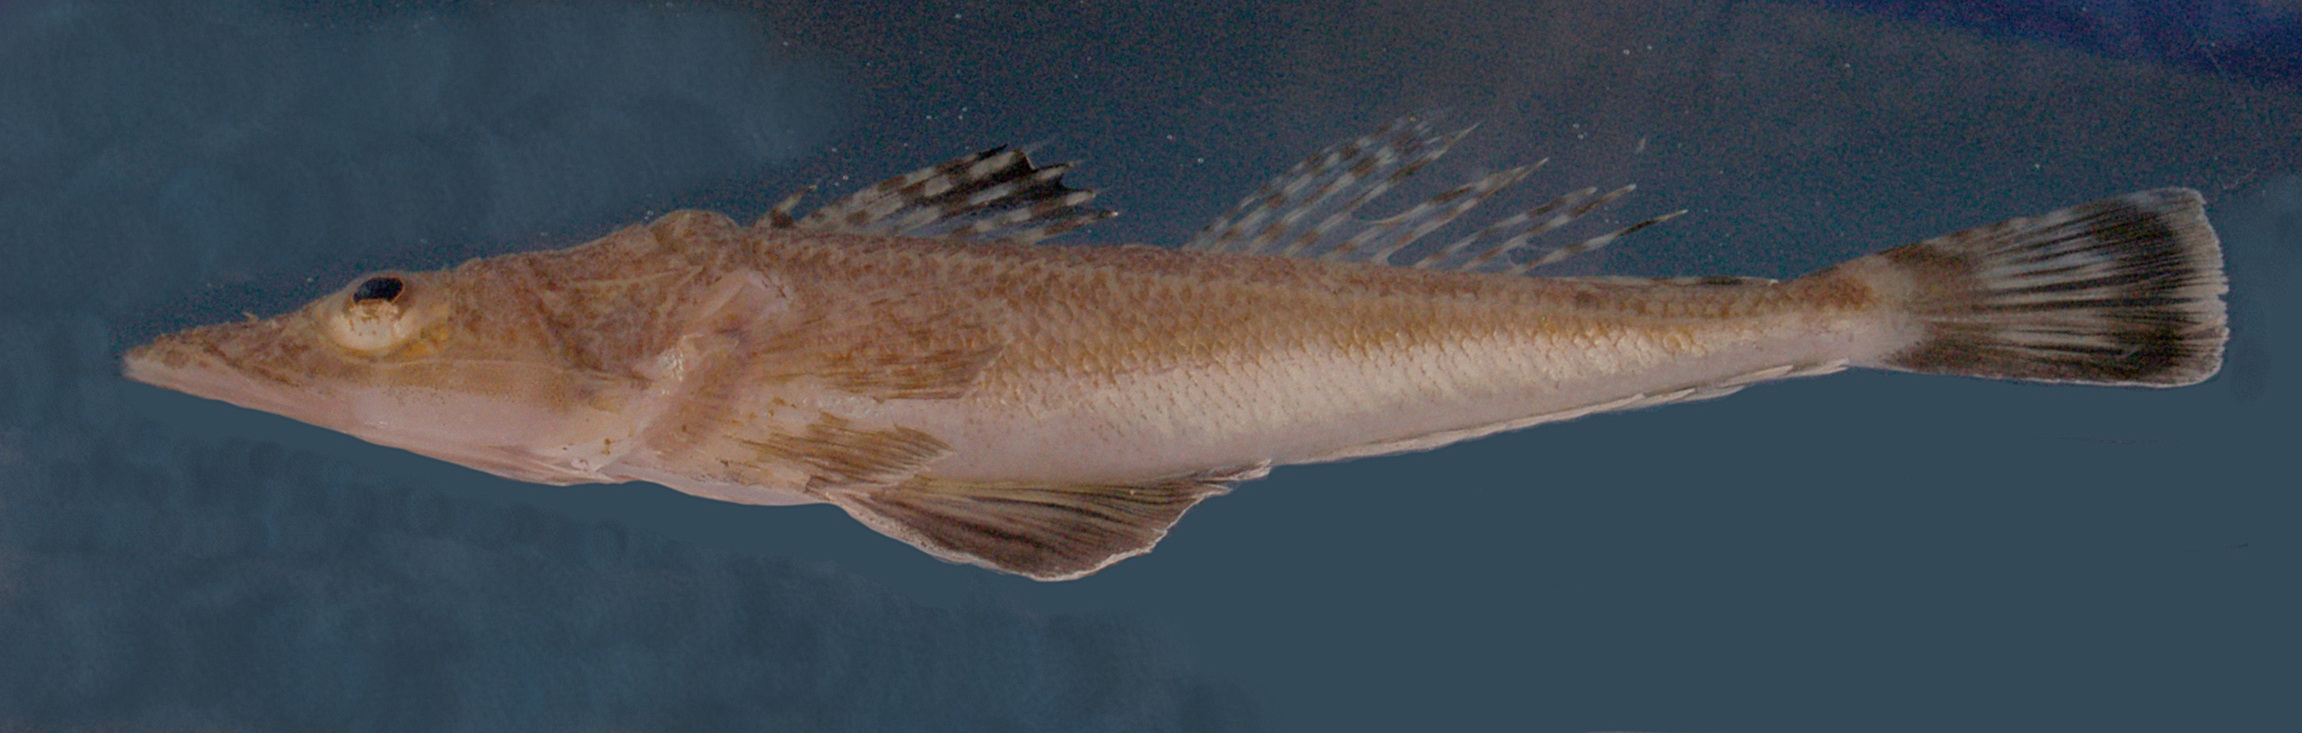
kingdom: Animalia
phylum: Chordata
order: Scorpaeniformes
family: Platycephalidae
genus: Sorsogona
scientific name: Sorsogona portuguesa
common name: South african thorny flathead
